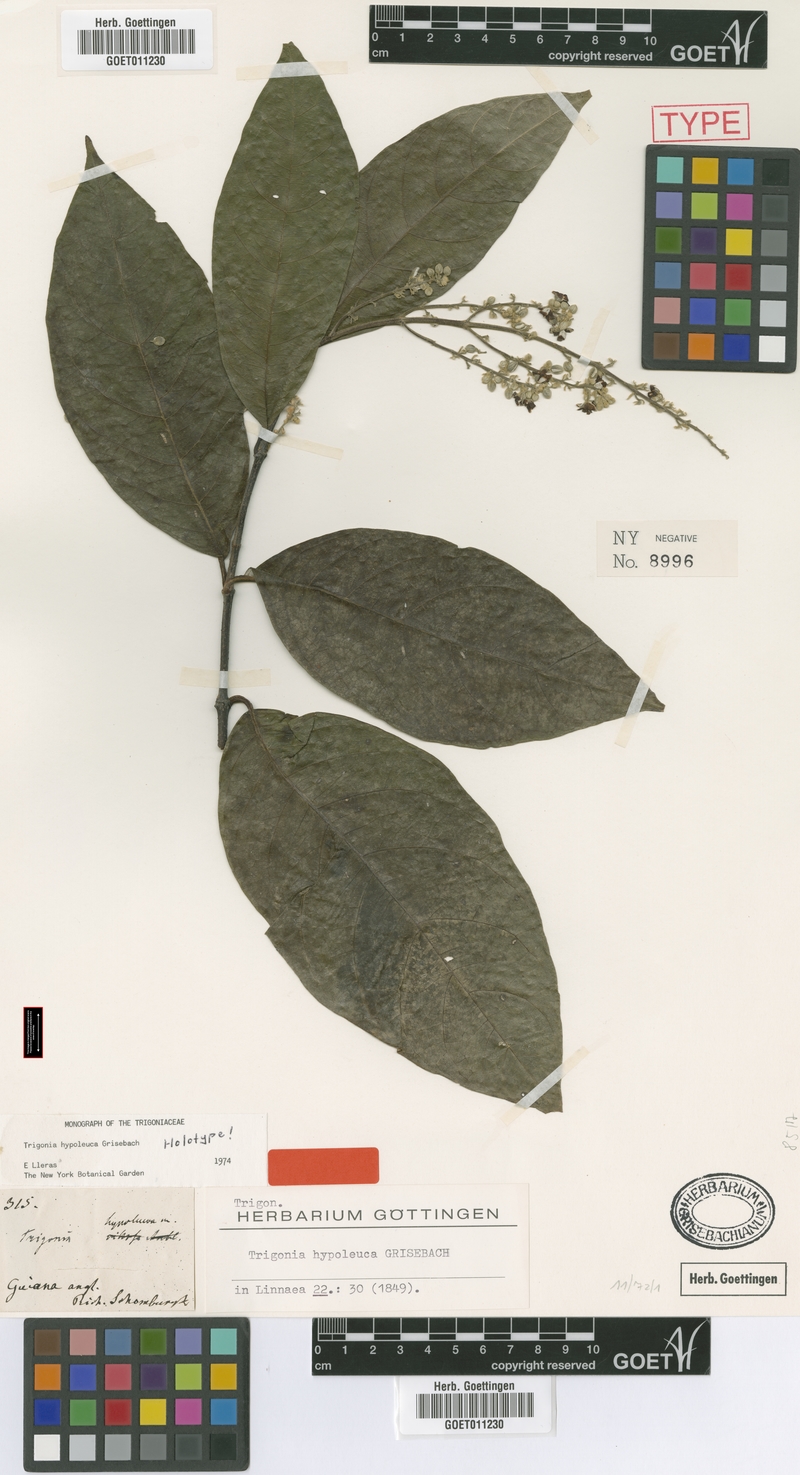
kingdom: Plantae
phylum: Tracheophyta
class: Magnoliopsida
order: Malpighiales
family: Trigoniaceae
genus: Trigonia
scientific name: Trigonia hypoleuca
